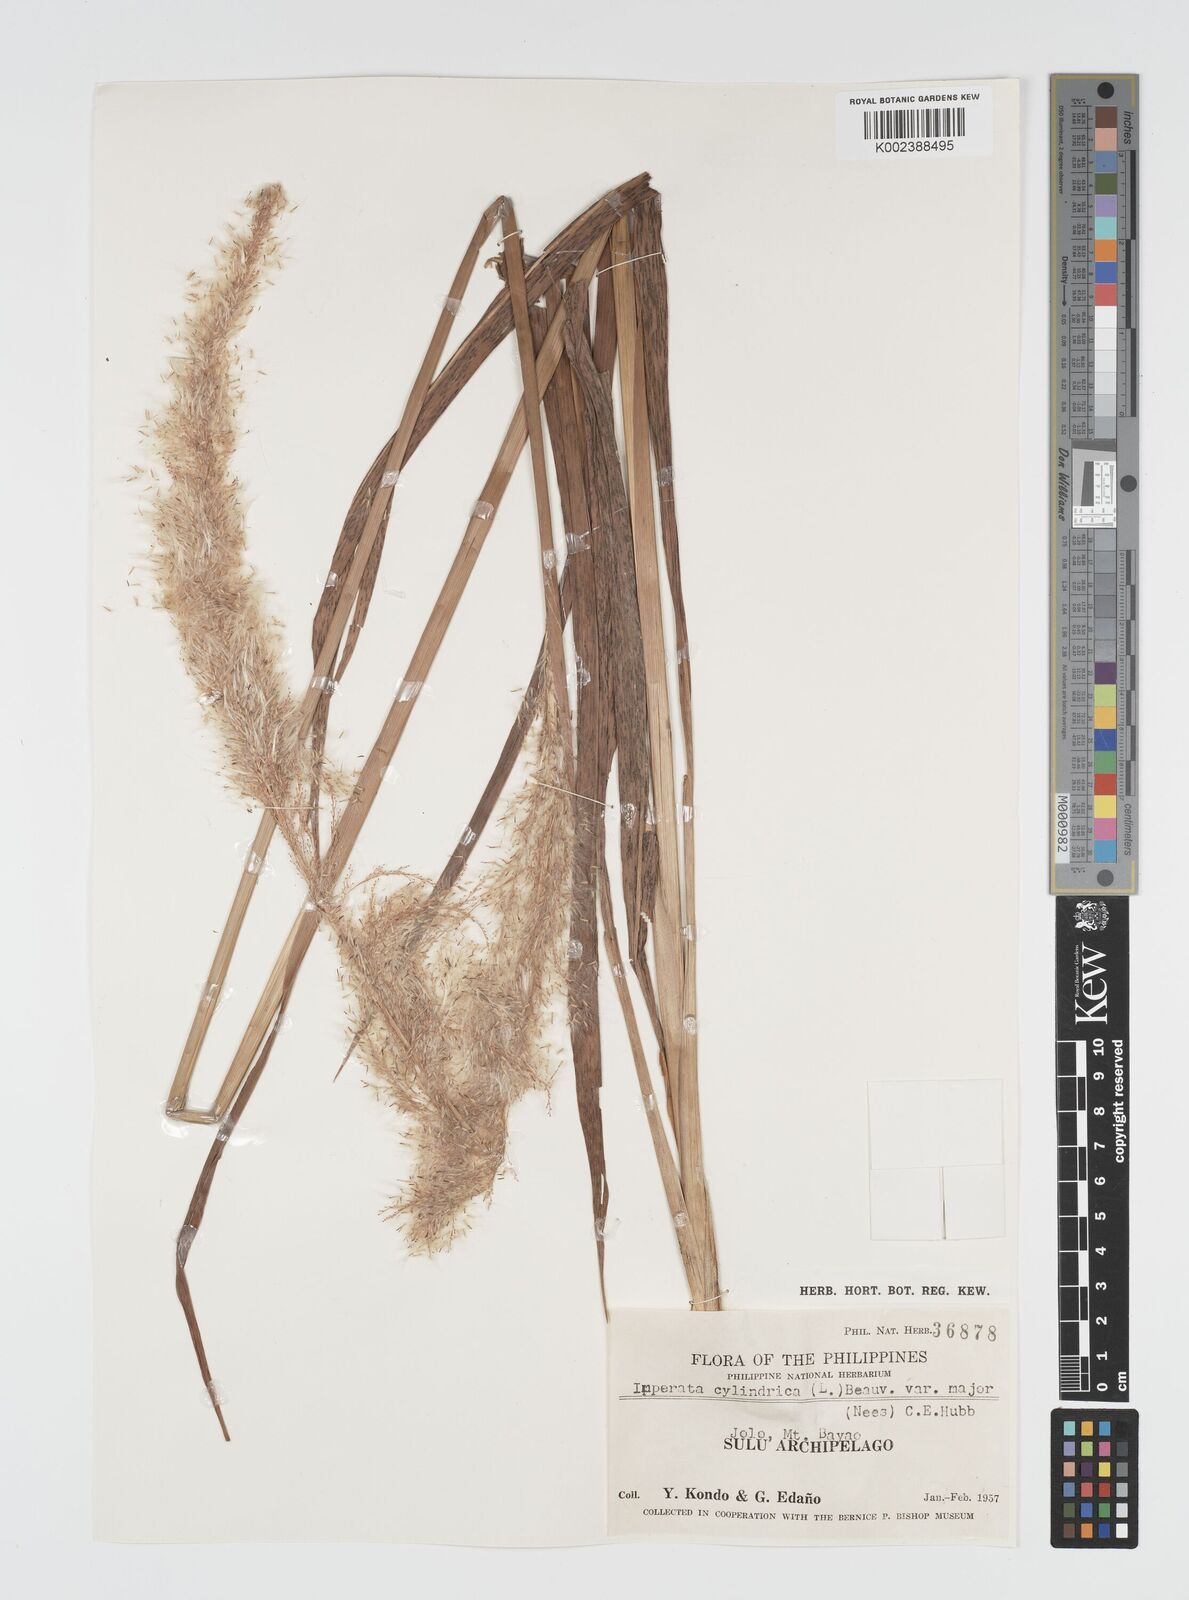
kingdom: Plantae
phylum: Tracheophyta
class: Liliopsida
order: Poales
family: Poaceae
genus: Imperata
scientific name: Imperata cylindrica
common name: Cogongrass
